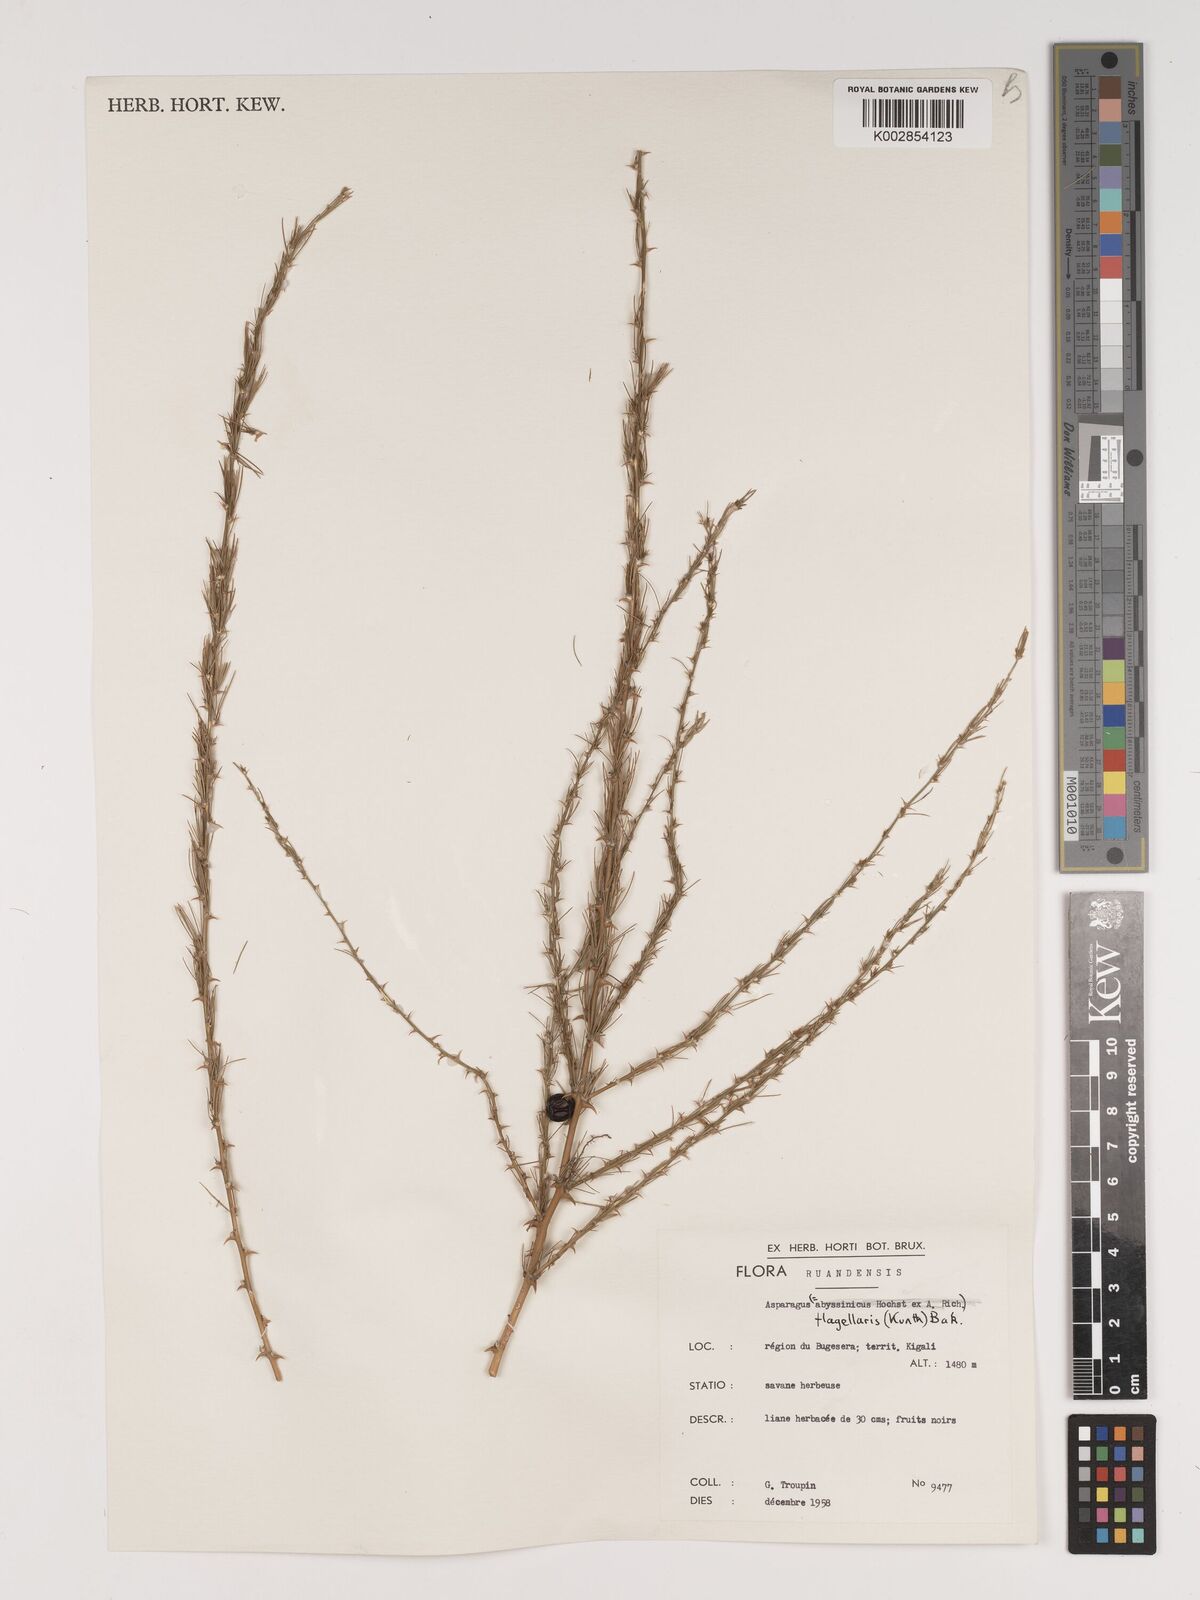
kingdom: Plantae
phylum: Tracheophyta
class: Liliopsida
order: Asparagales
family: Asparagaceae
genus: Asparagus
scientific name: Asparagus flagellaris
